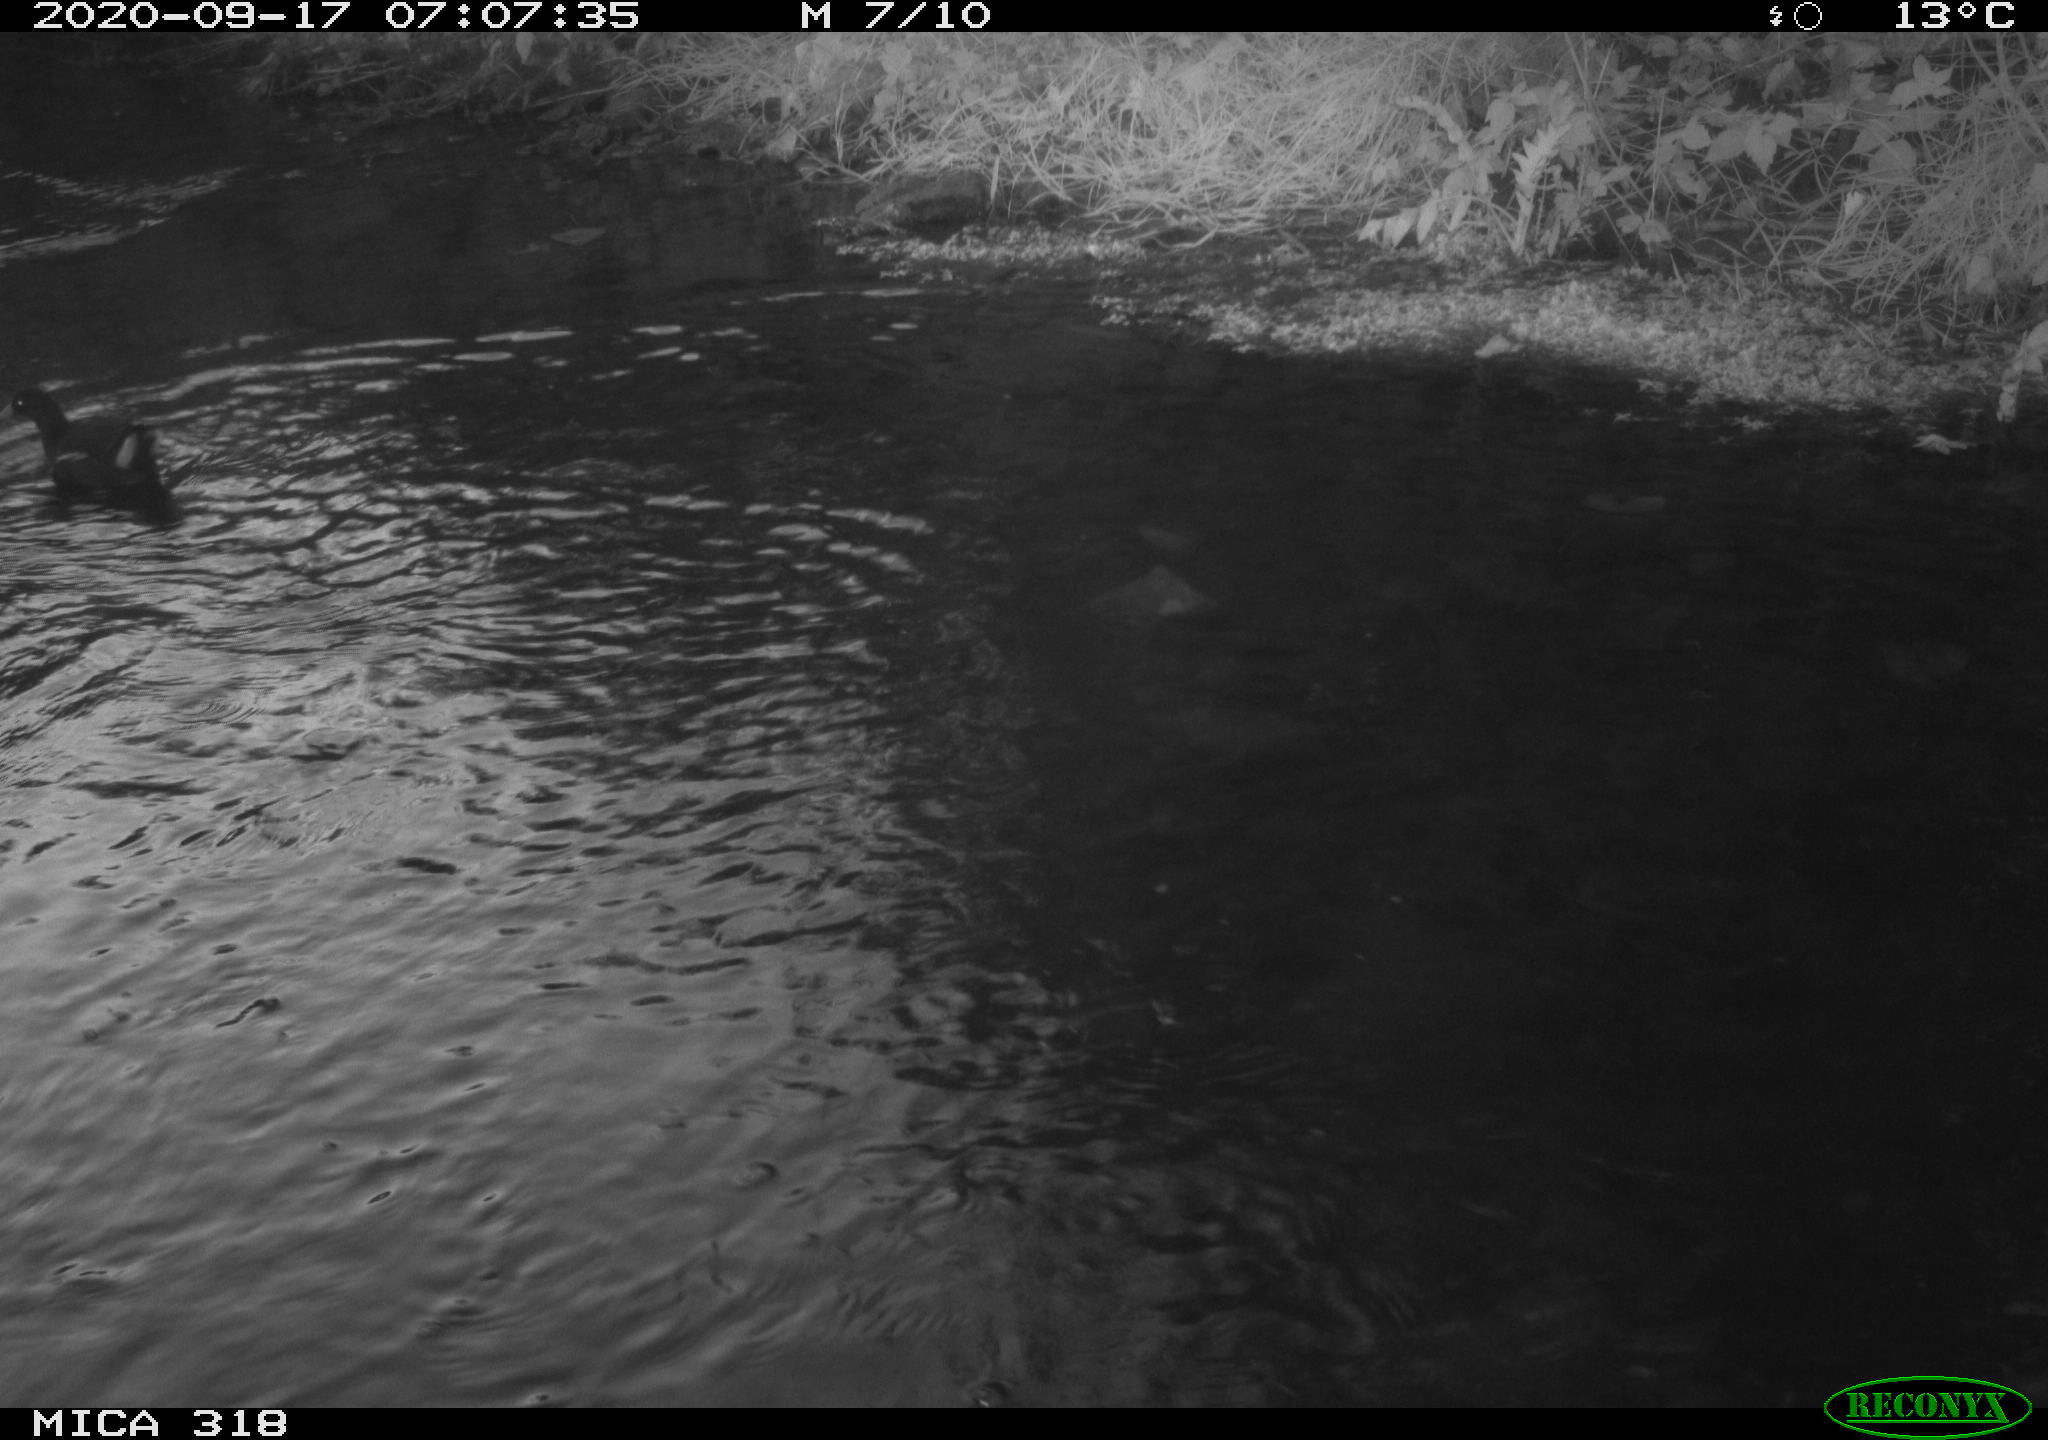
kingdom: Animalia
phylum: Chordata
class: Aves
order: Gruiformes
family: Rallidae
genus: Gallinula
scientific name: Gallinula chloropus
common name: Common moorhen
